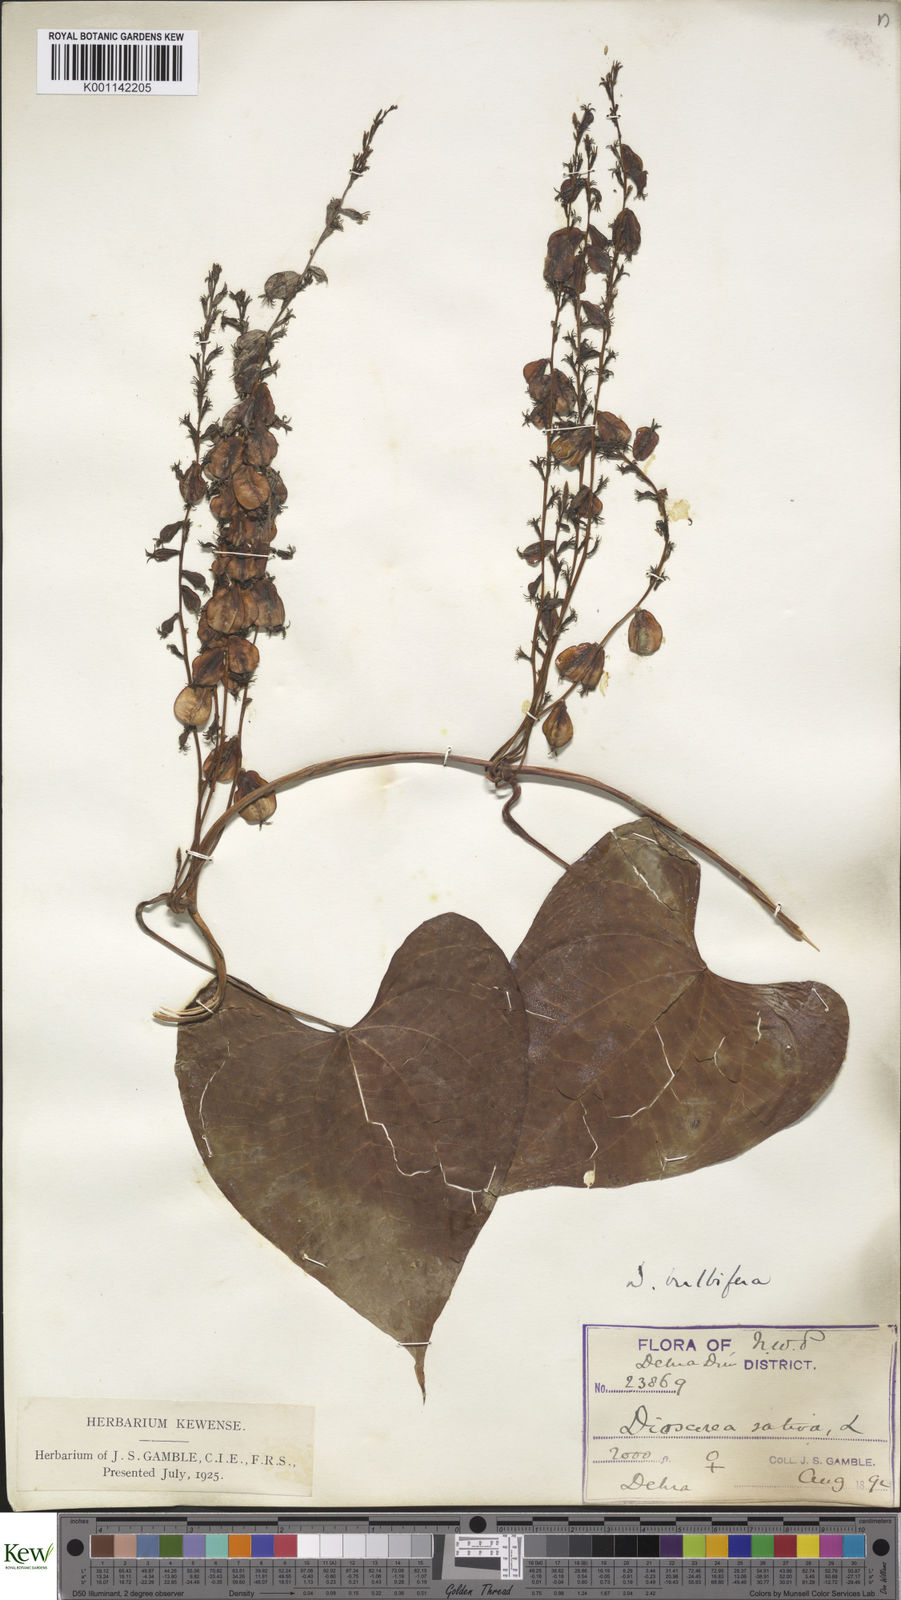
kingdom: Plantae
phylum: Tracheophyta
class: Liliopsida
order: Dioscoreales
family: Dioscoreaceae
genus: Dioscorea
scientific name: Dioscorea bulbifera
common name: Air yam
